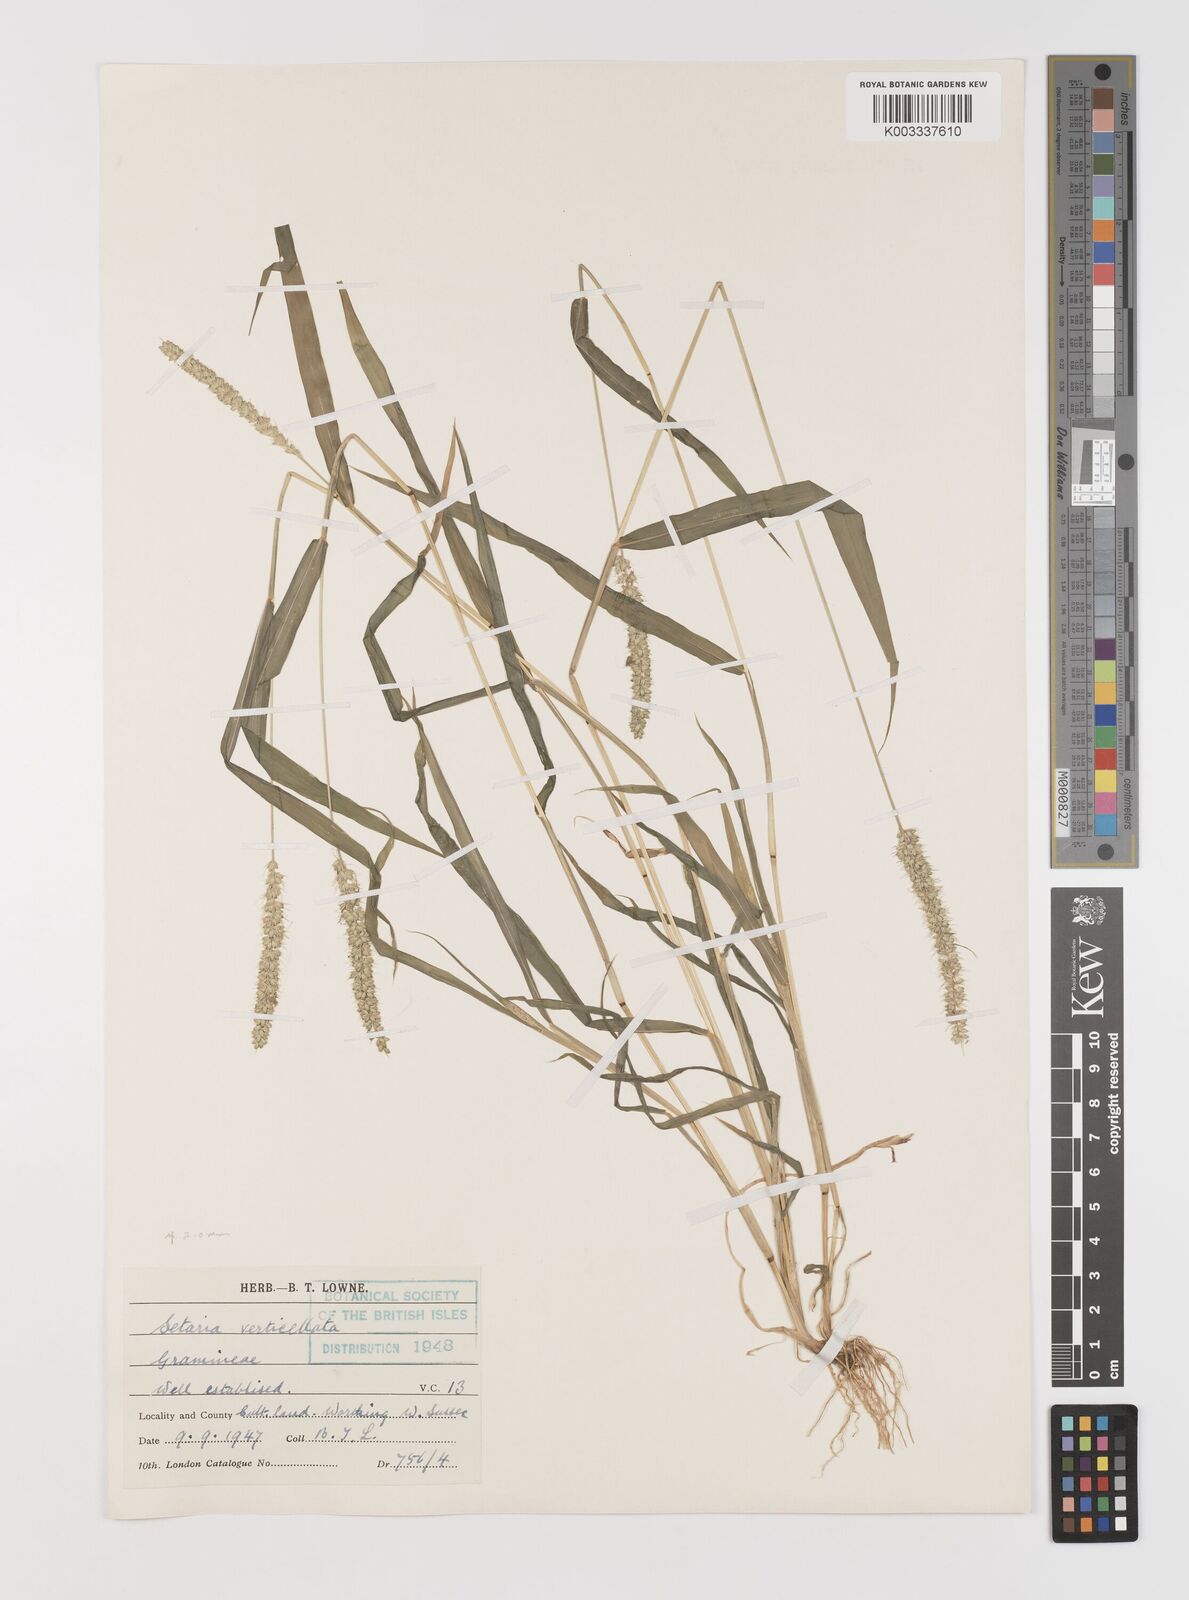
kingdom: Plantae
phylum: Tracheophyta
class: Liliopsida
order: Poales
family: Poaceae
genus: Setaria
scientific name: Setaria verticillata
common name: Hooked bristlegrass
